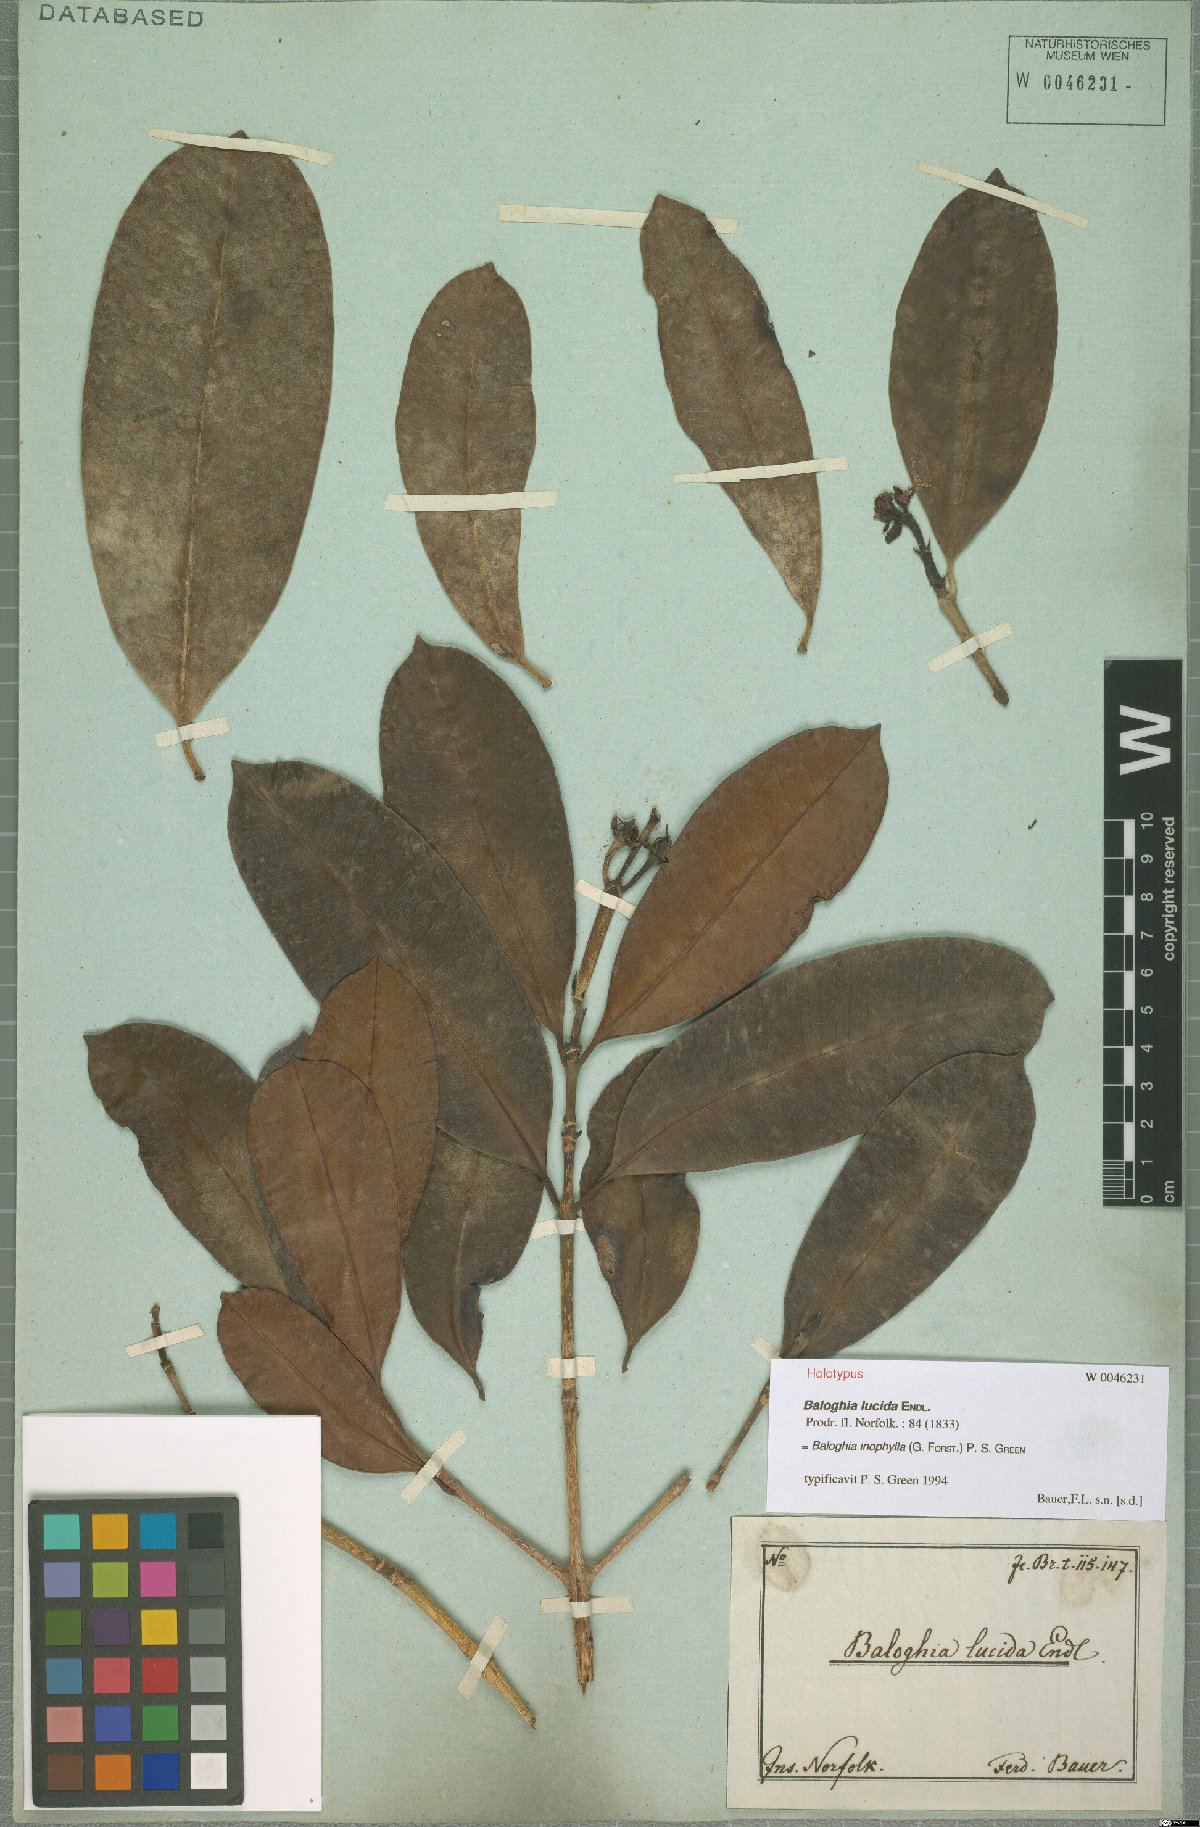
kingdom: Plantae
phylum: Tracheophyta
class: Magnoliopsida
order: Malpighiales
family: Euphorbiaceae
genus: Baloghia
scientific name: Baloghia inophylla
